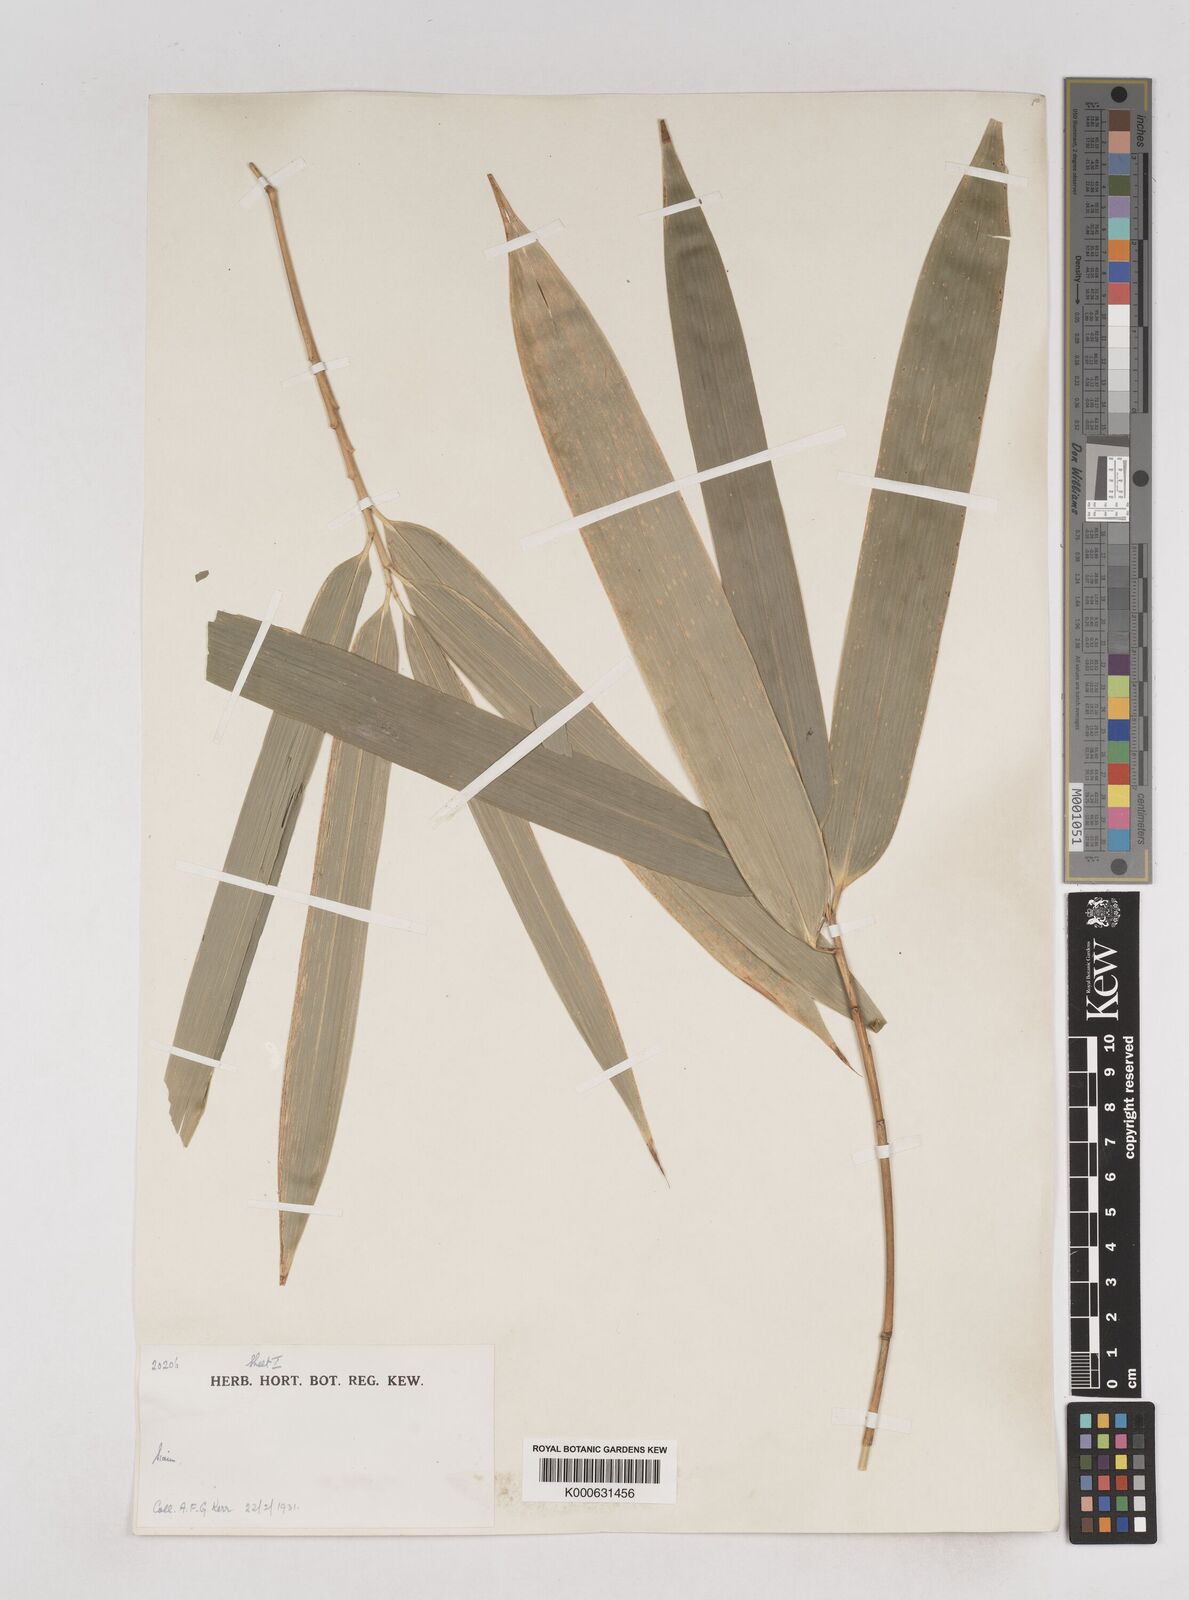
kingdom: Plantae
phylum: Tracheophyta
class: Liliopsida
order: Poales
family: Poaceae
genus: Schizostachyum
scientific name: Schizostachyum
